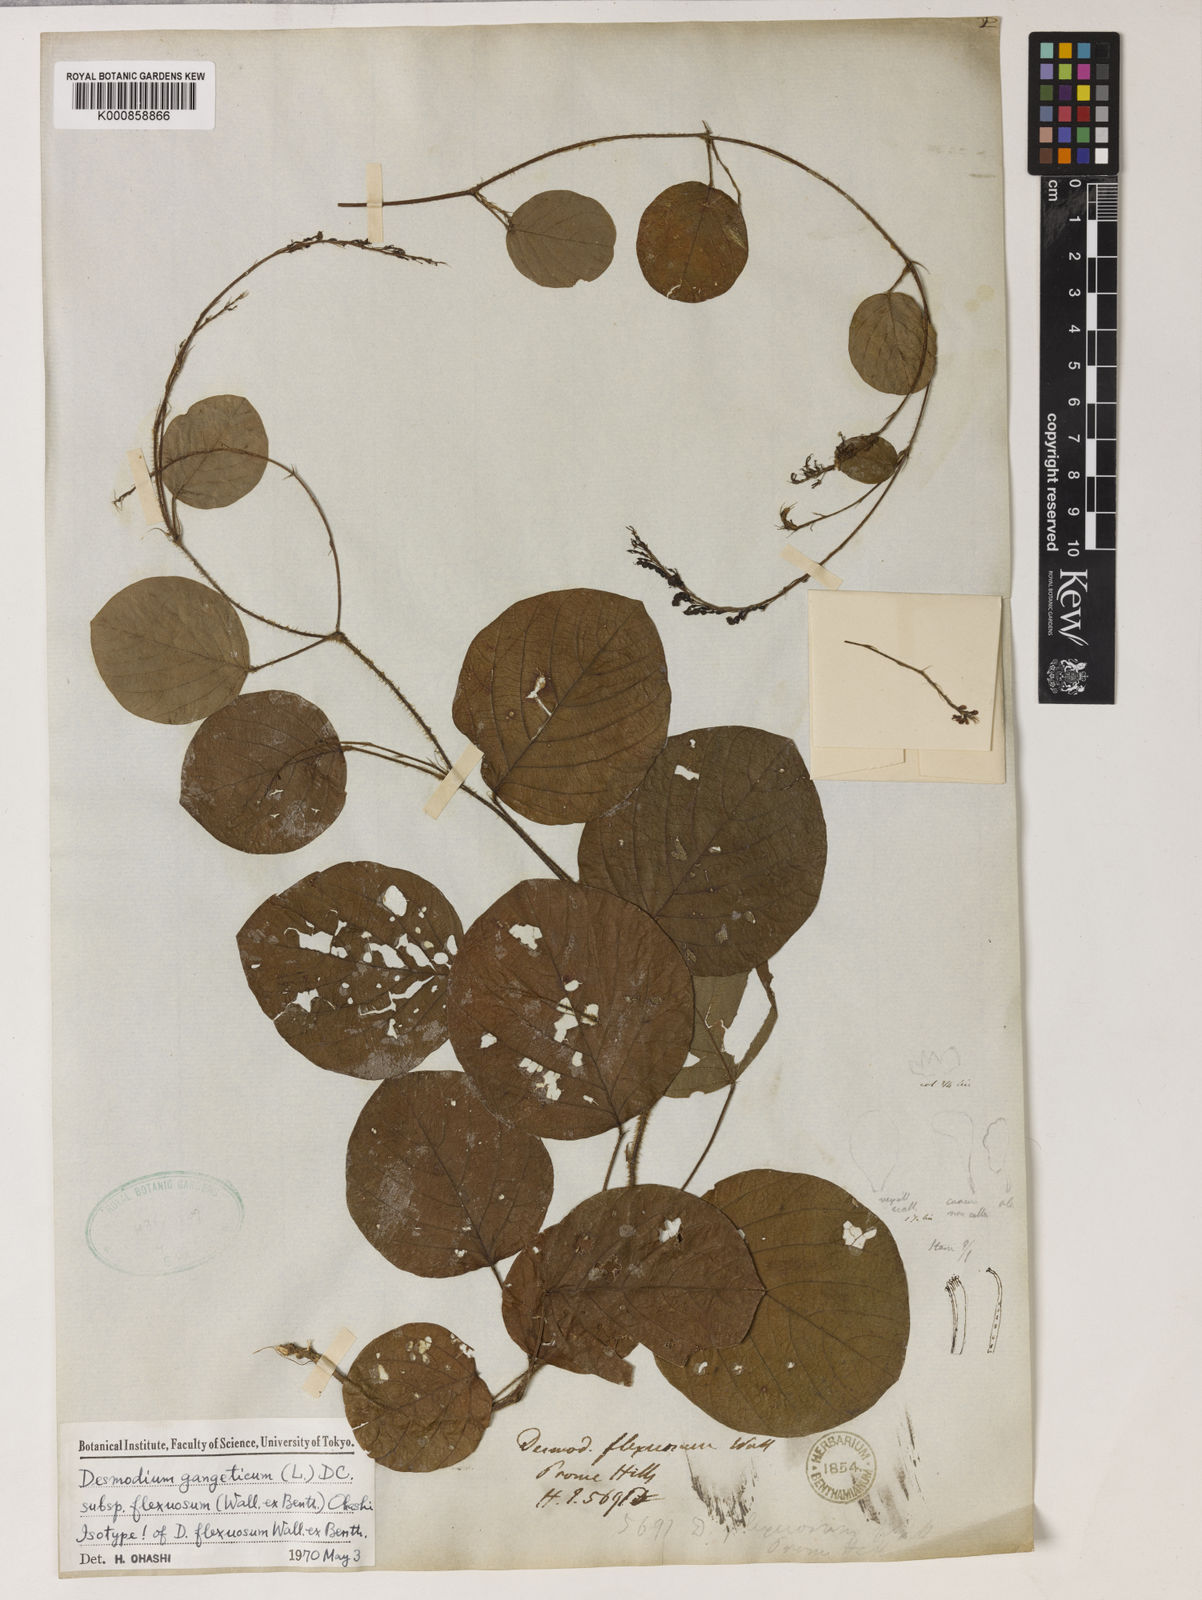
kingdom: Plantae
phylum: Tracheophyta
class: Magnoliopsida
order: Fabales
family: Fabaceae
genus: Desmodium
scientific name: Desmodium
